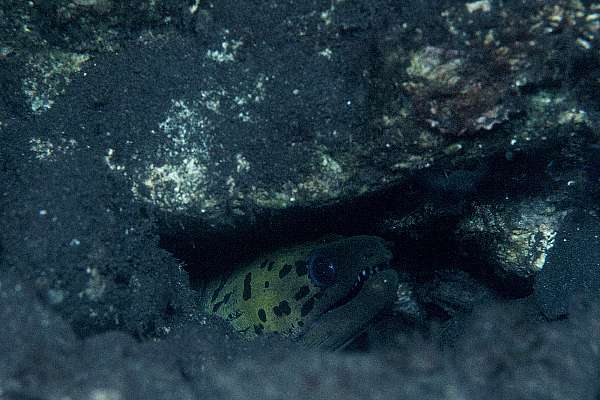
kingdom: Animalia
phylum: Chordata
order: Anguilliformes
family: Muraenidae
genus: Gymnothorax
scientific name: Gymnothorax fimbriatus
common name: Darkspotted moray
